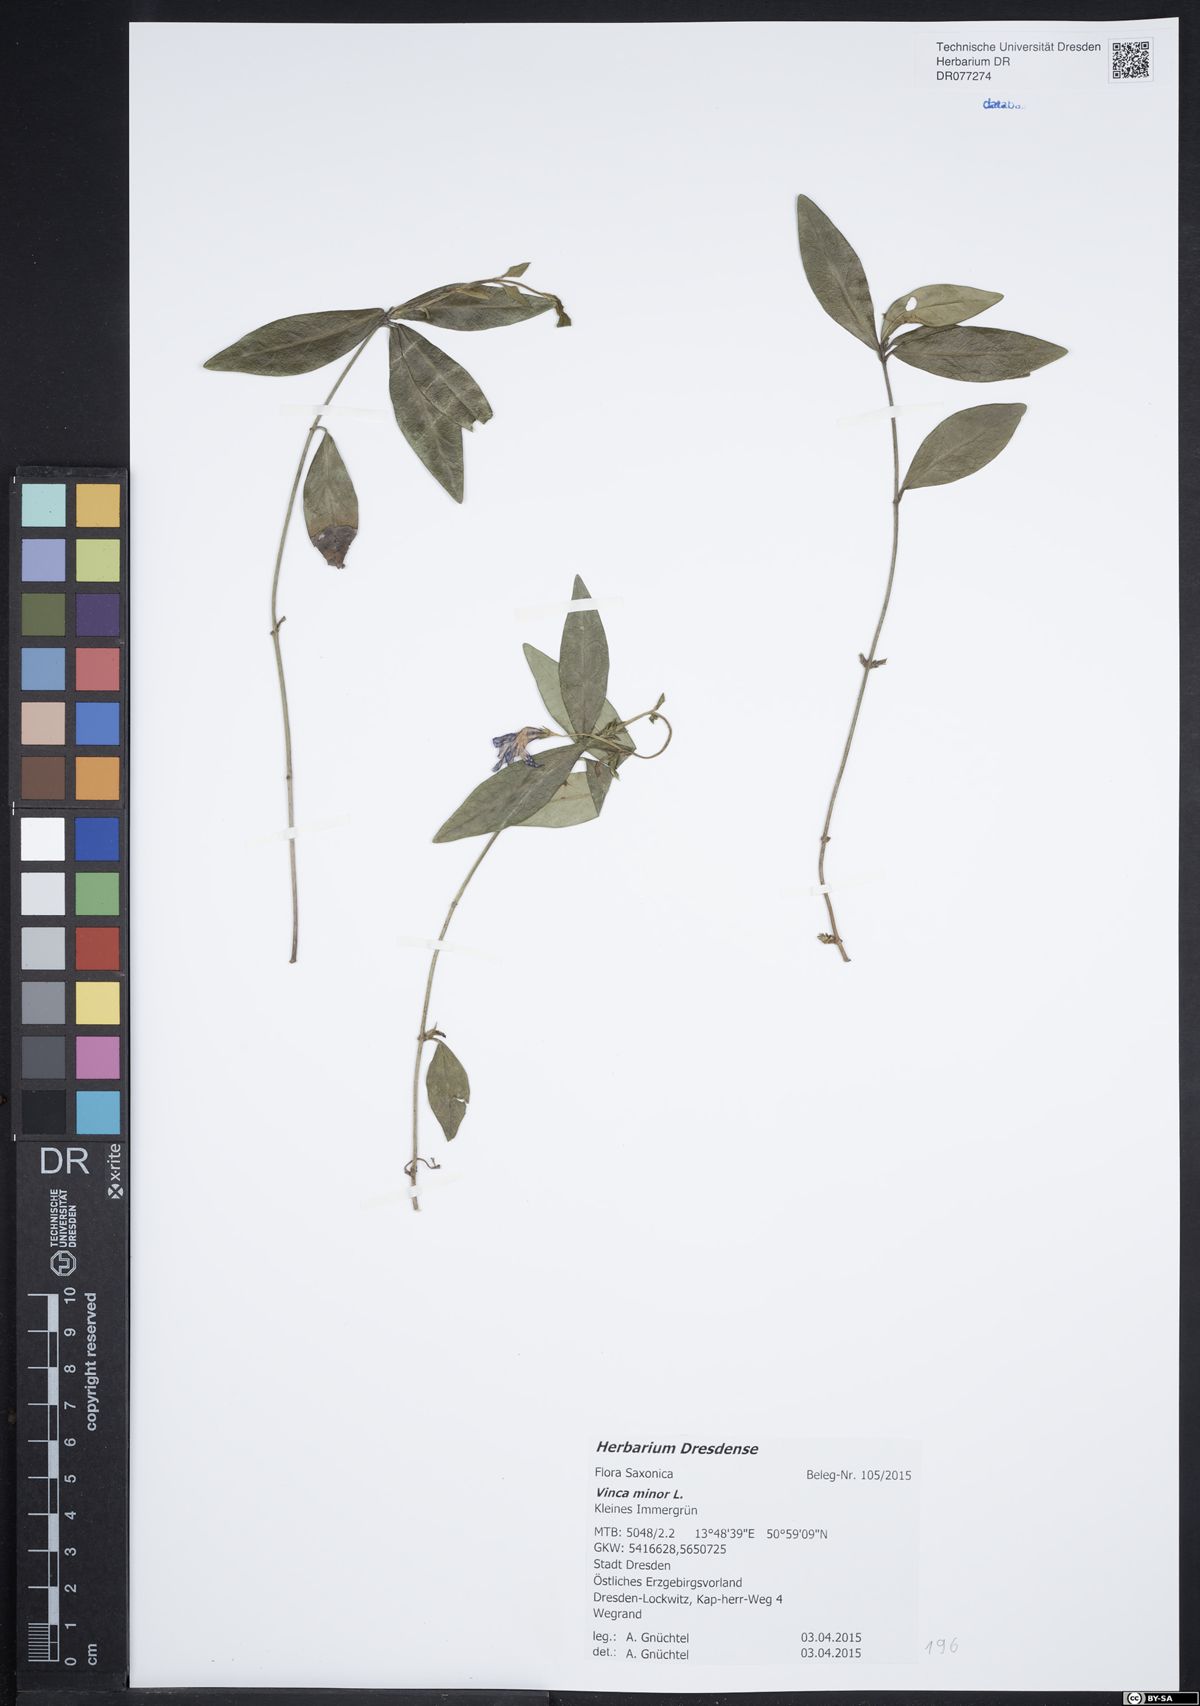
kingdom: Plantae
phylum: Tracheophyta
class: Magnoliopsida
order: Gentianales
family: Apocynaceae
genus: Vinca
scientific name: Vinca minor
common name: Lesser periwinkle
